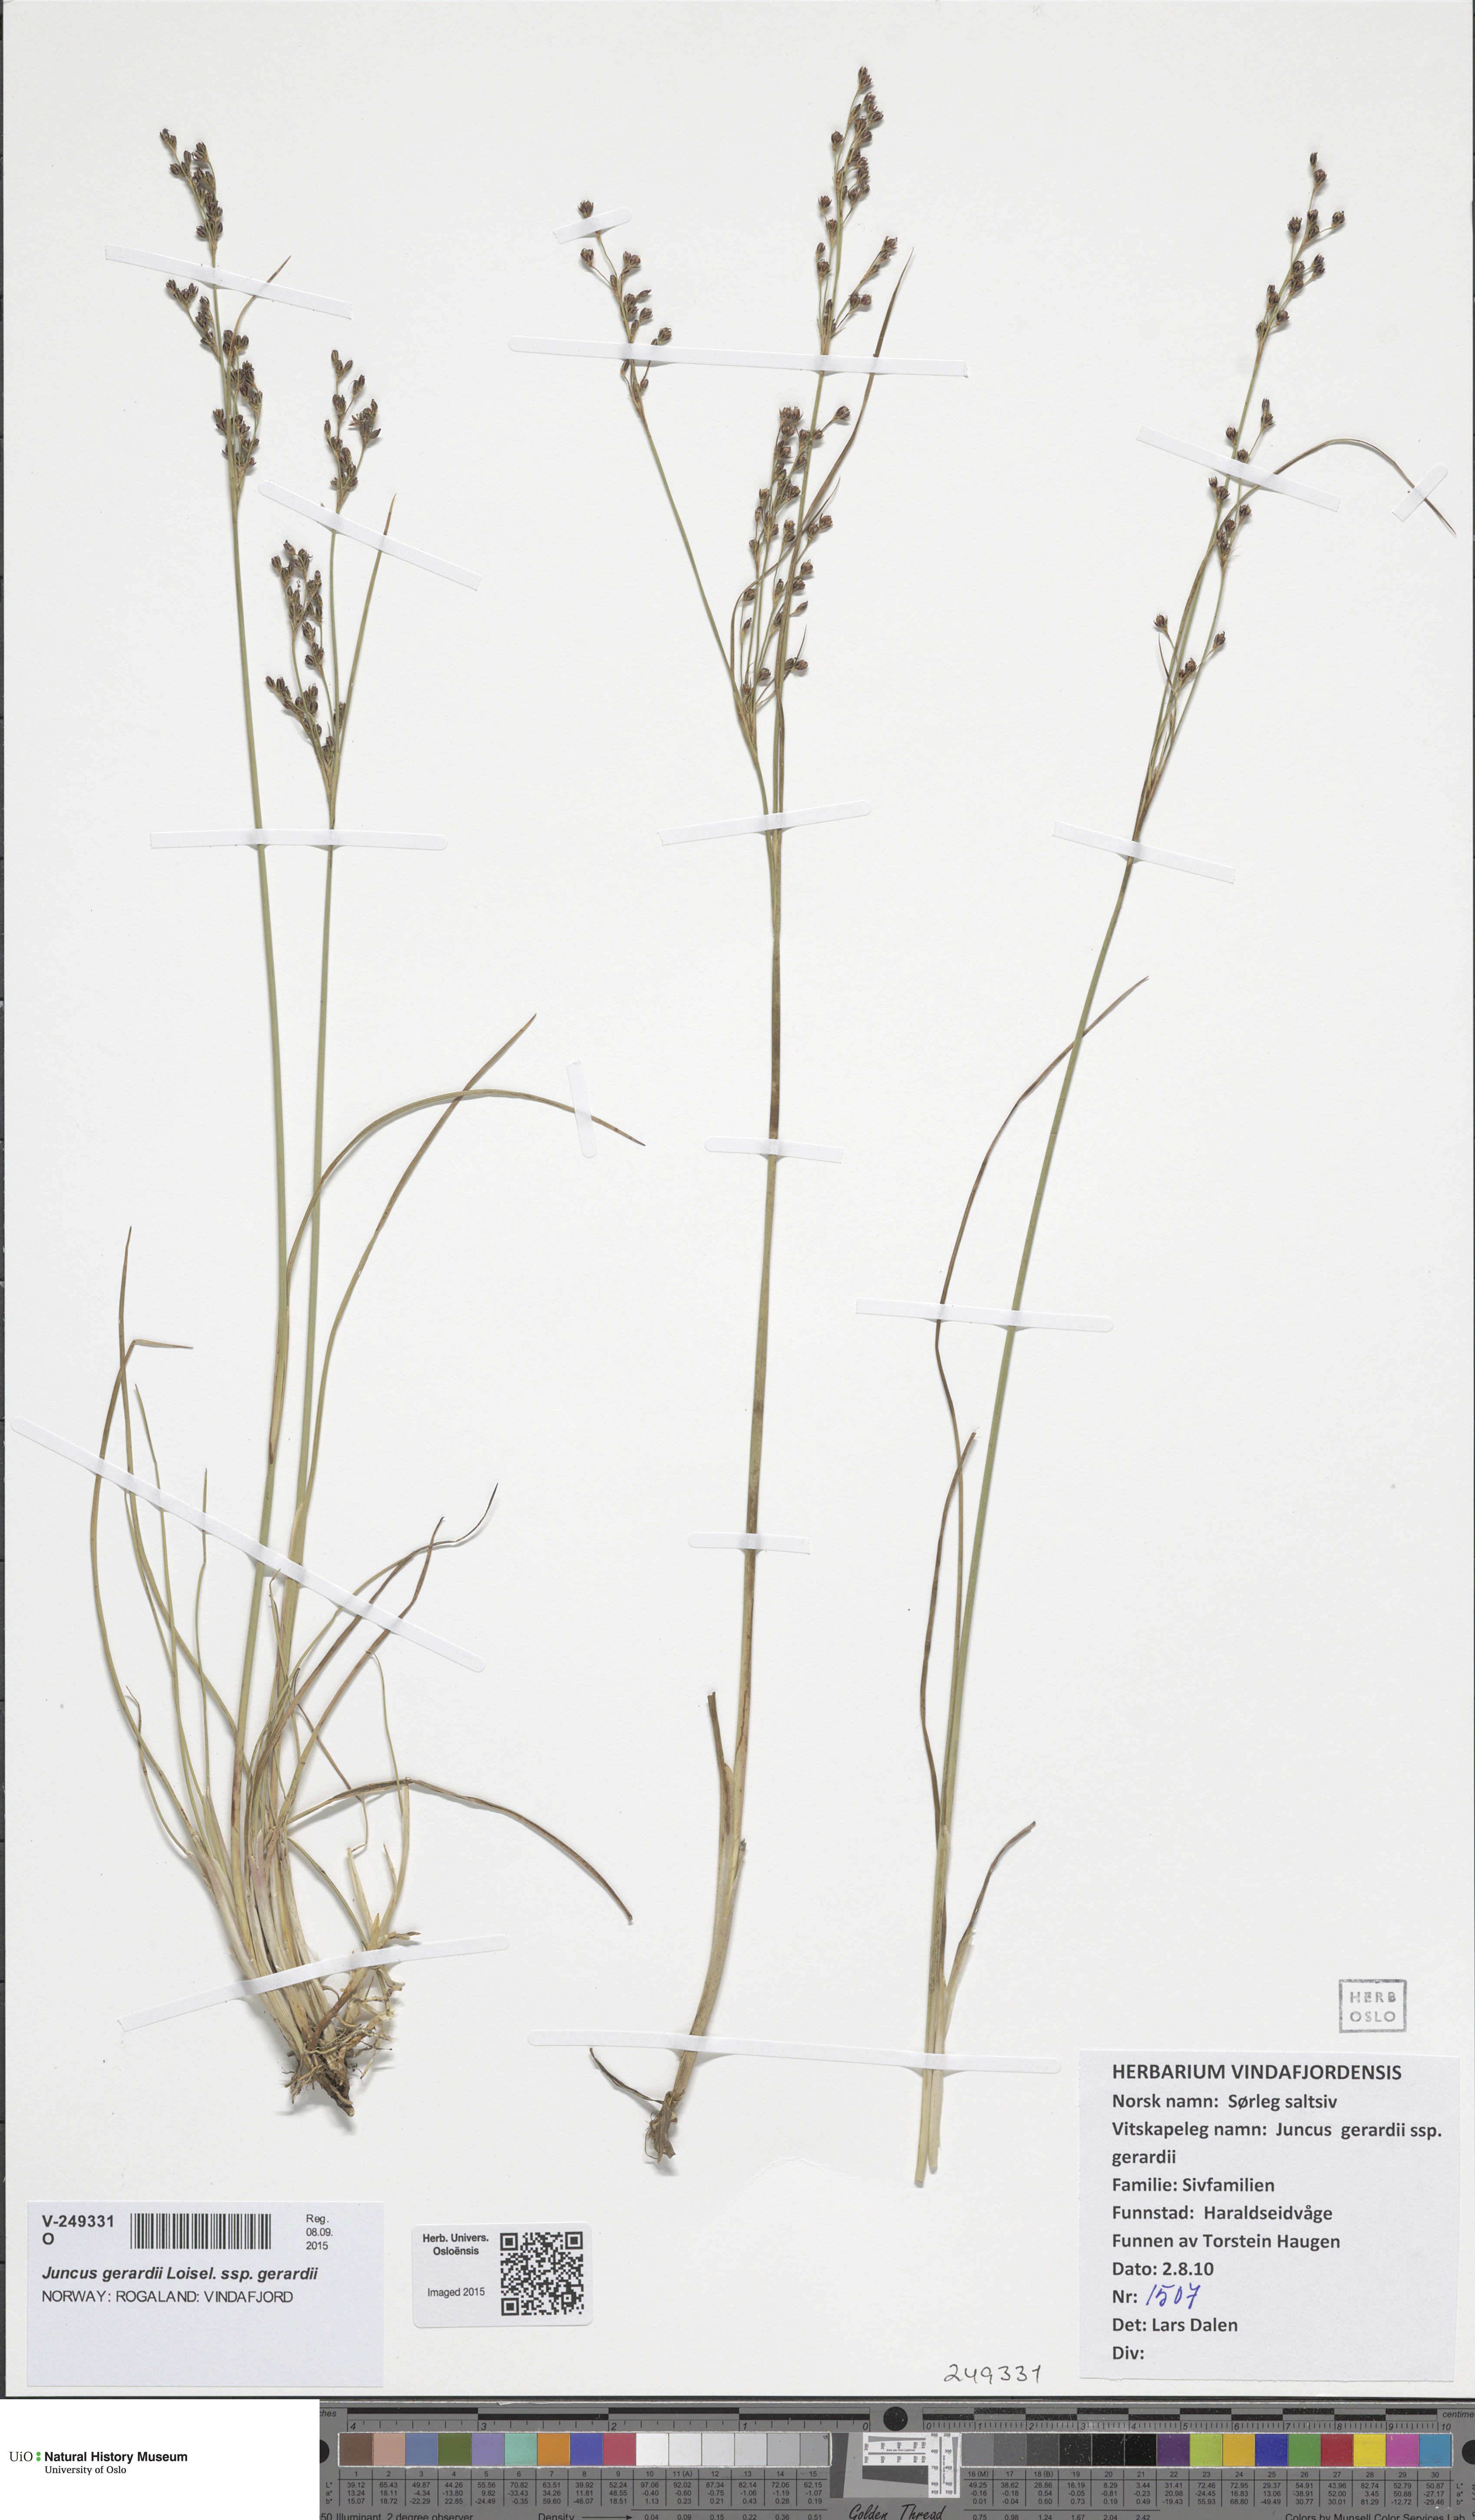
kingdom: Plantae
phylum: Tracheophyta
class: Liliopsida
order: Poales
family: Juncaceae
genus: Juncus
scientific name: Juncus gerardi
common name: Saltmarsh rush
